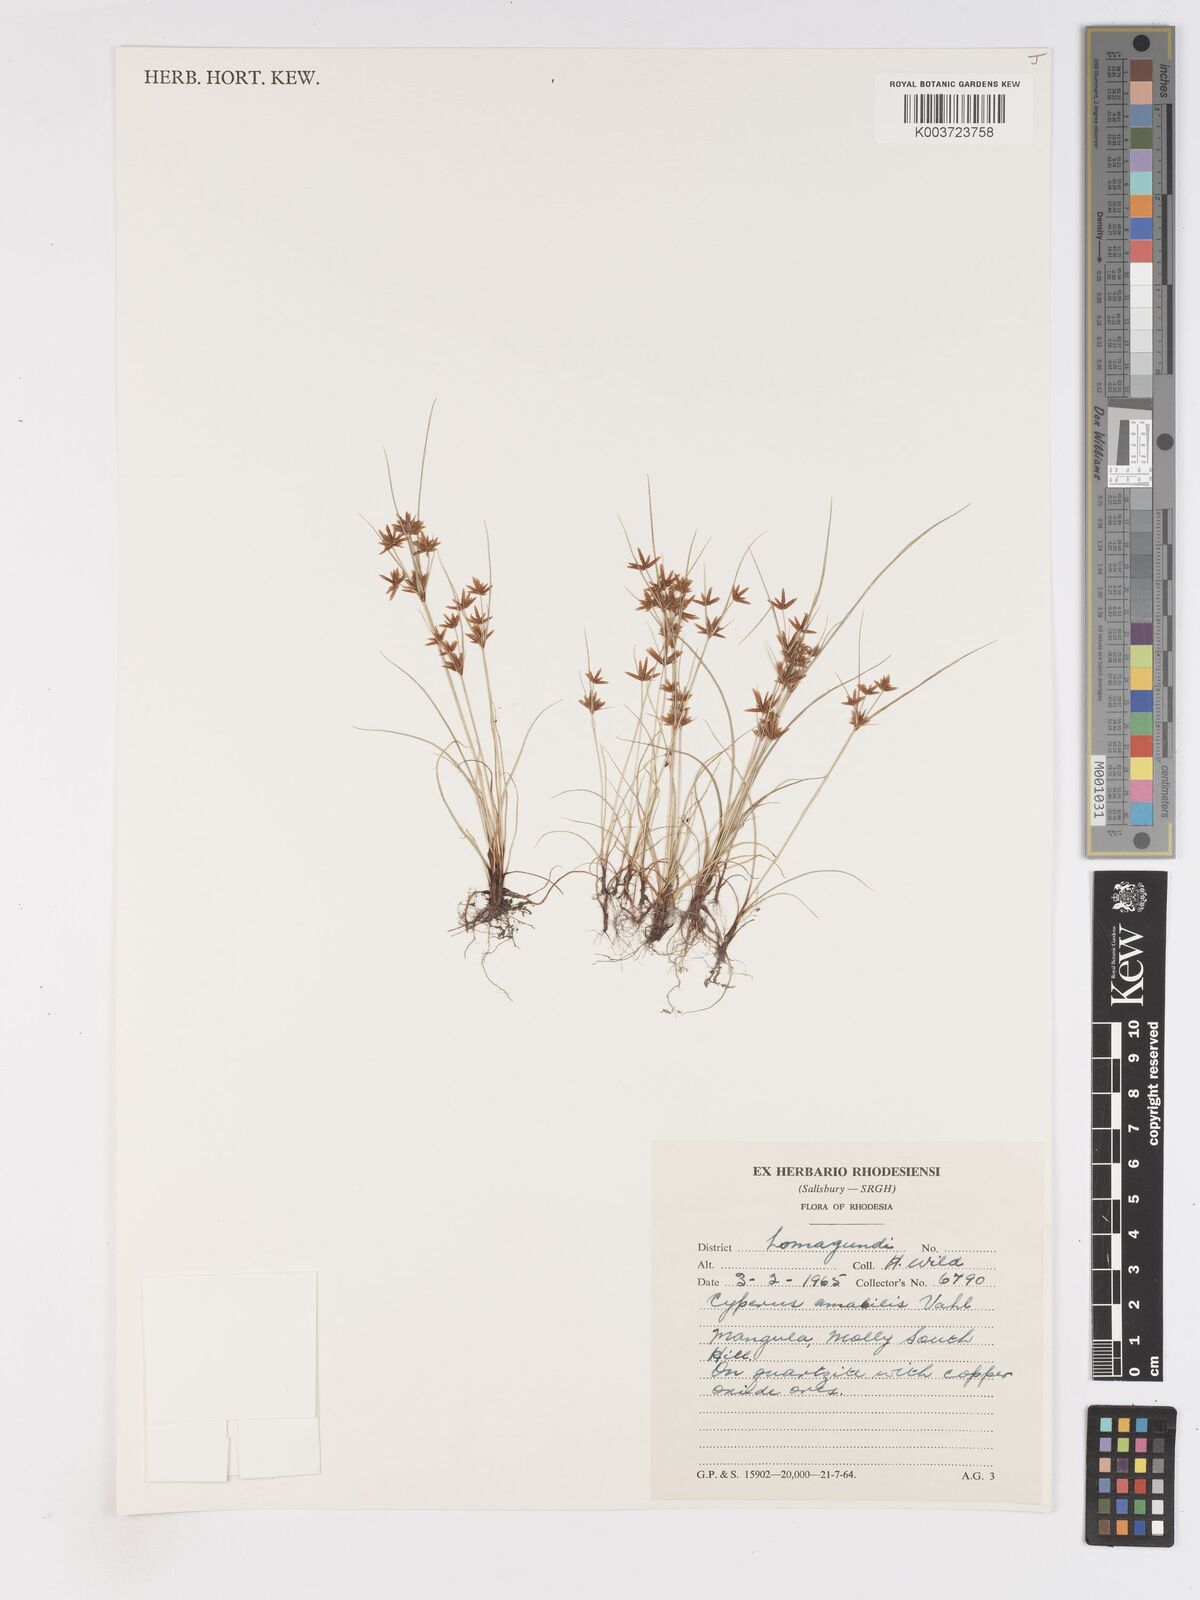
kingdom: Plantae
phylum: Tracheophyta
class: Liliopsida
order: Poales
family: Cyperaceae
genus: Cyperus
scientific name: Cyperus amabilis
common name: Foothill flat sedge
